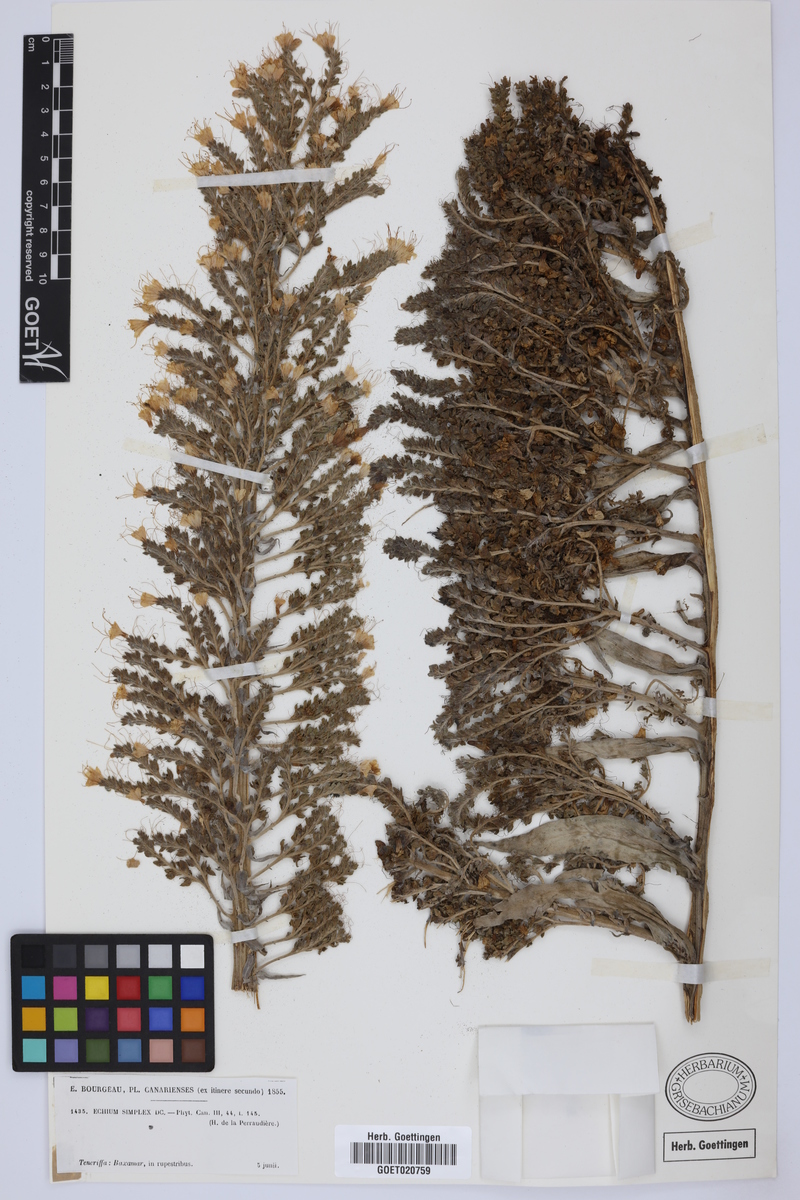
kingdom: Plantae
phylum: Tracheophyta
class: Magnoliopsida
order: Boraginales
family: Boraginaceae
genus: Echium
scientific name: Echium simplex
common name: Pride-of-tenerife
